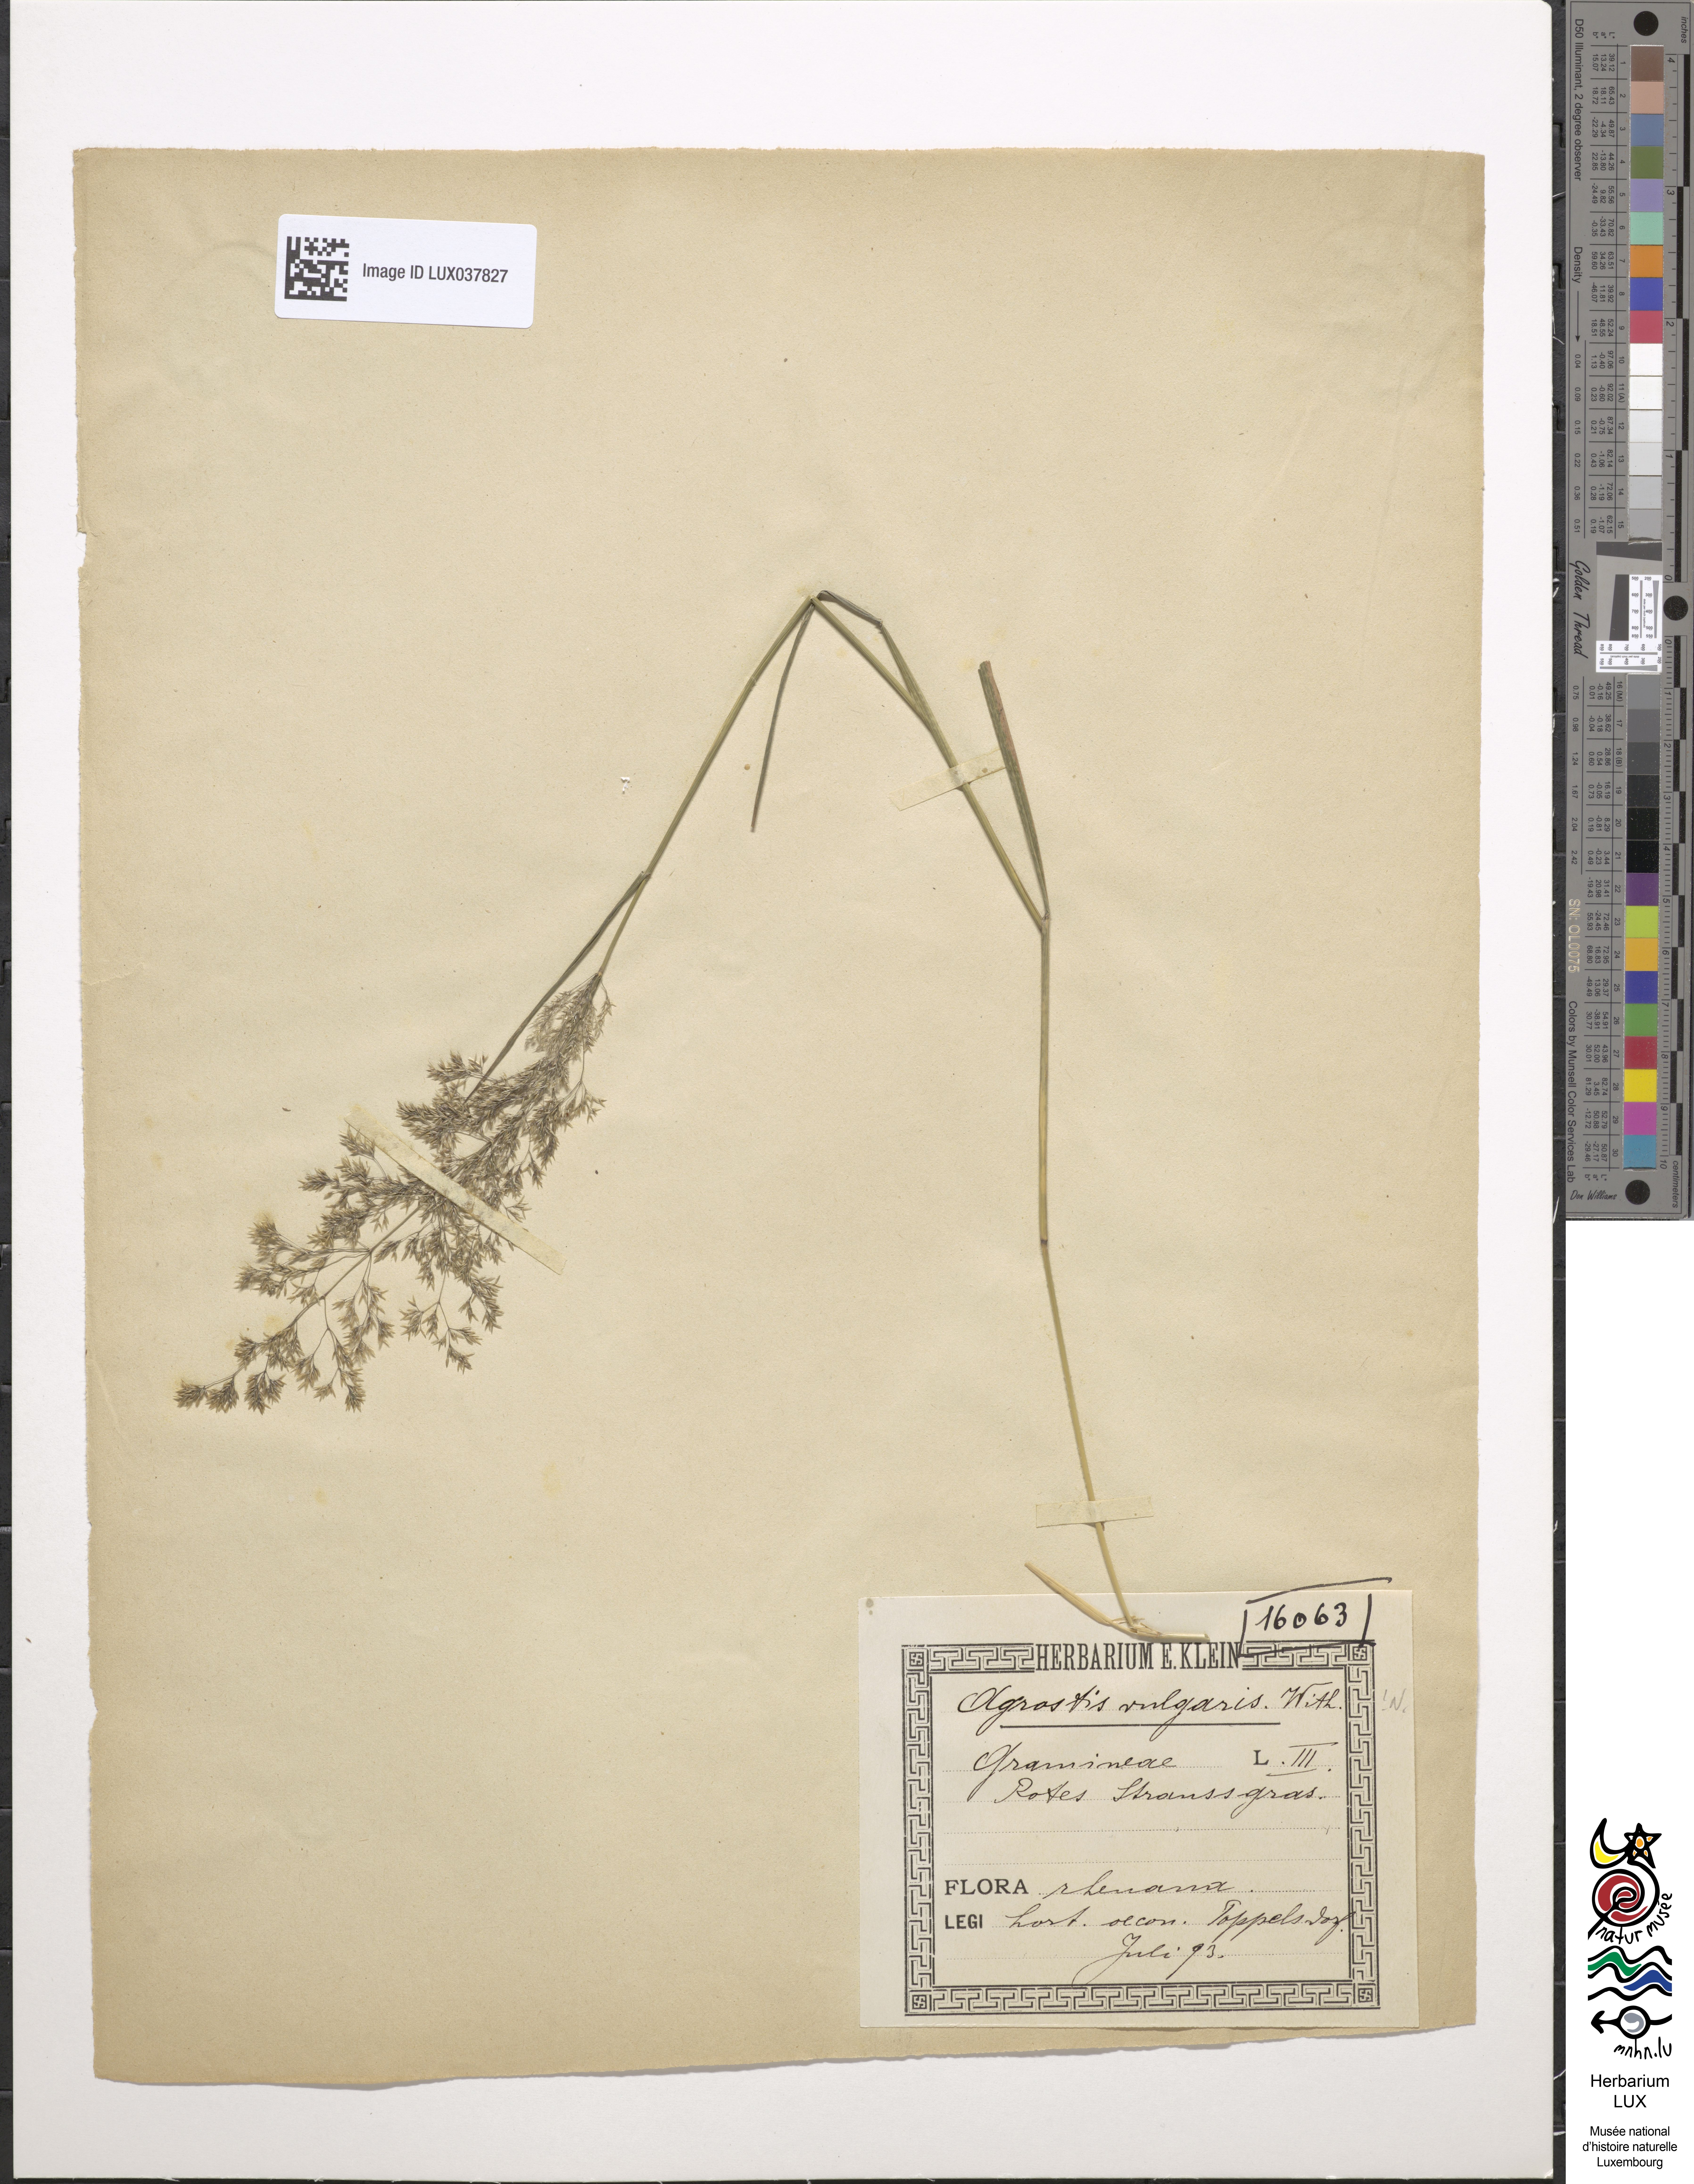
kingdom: Plantae
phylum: Tracheophyta
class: Liliopsida
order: Poales
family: Poaceae
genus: Agrostis
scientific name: Agrostis capillaris
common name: Colonial bentgrass
